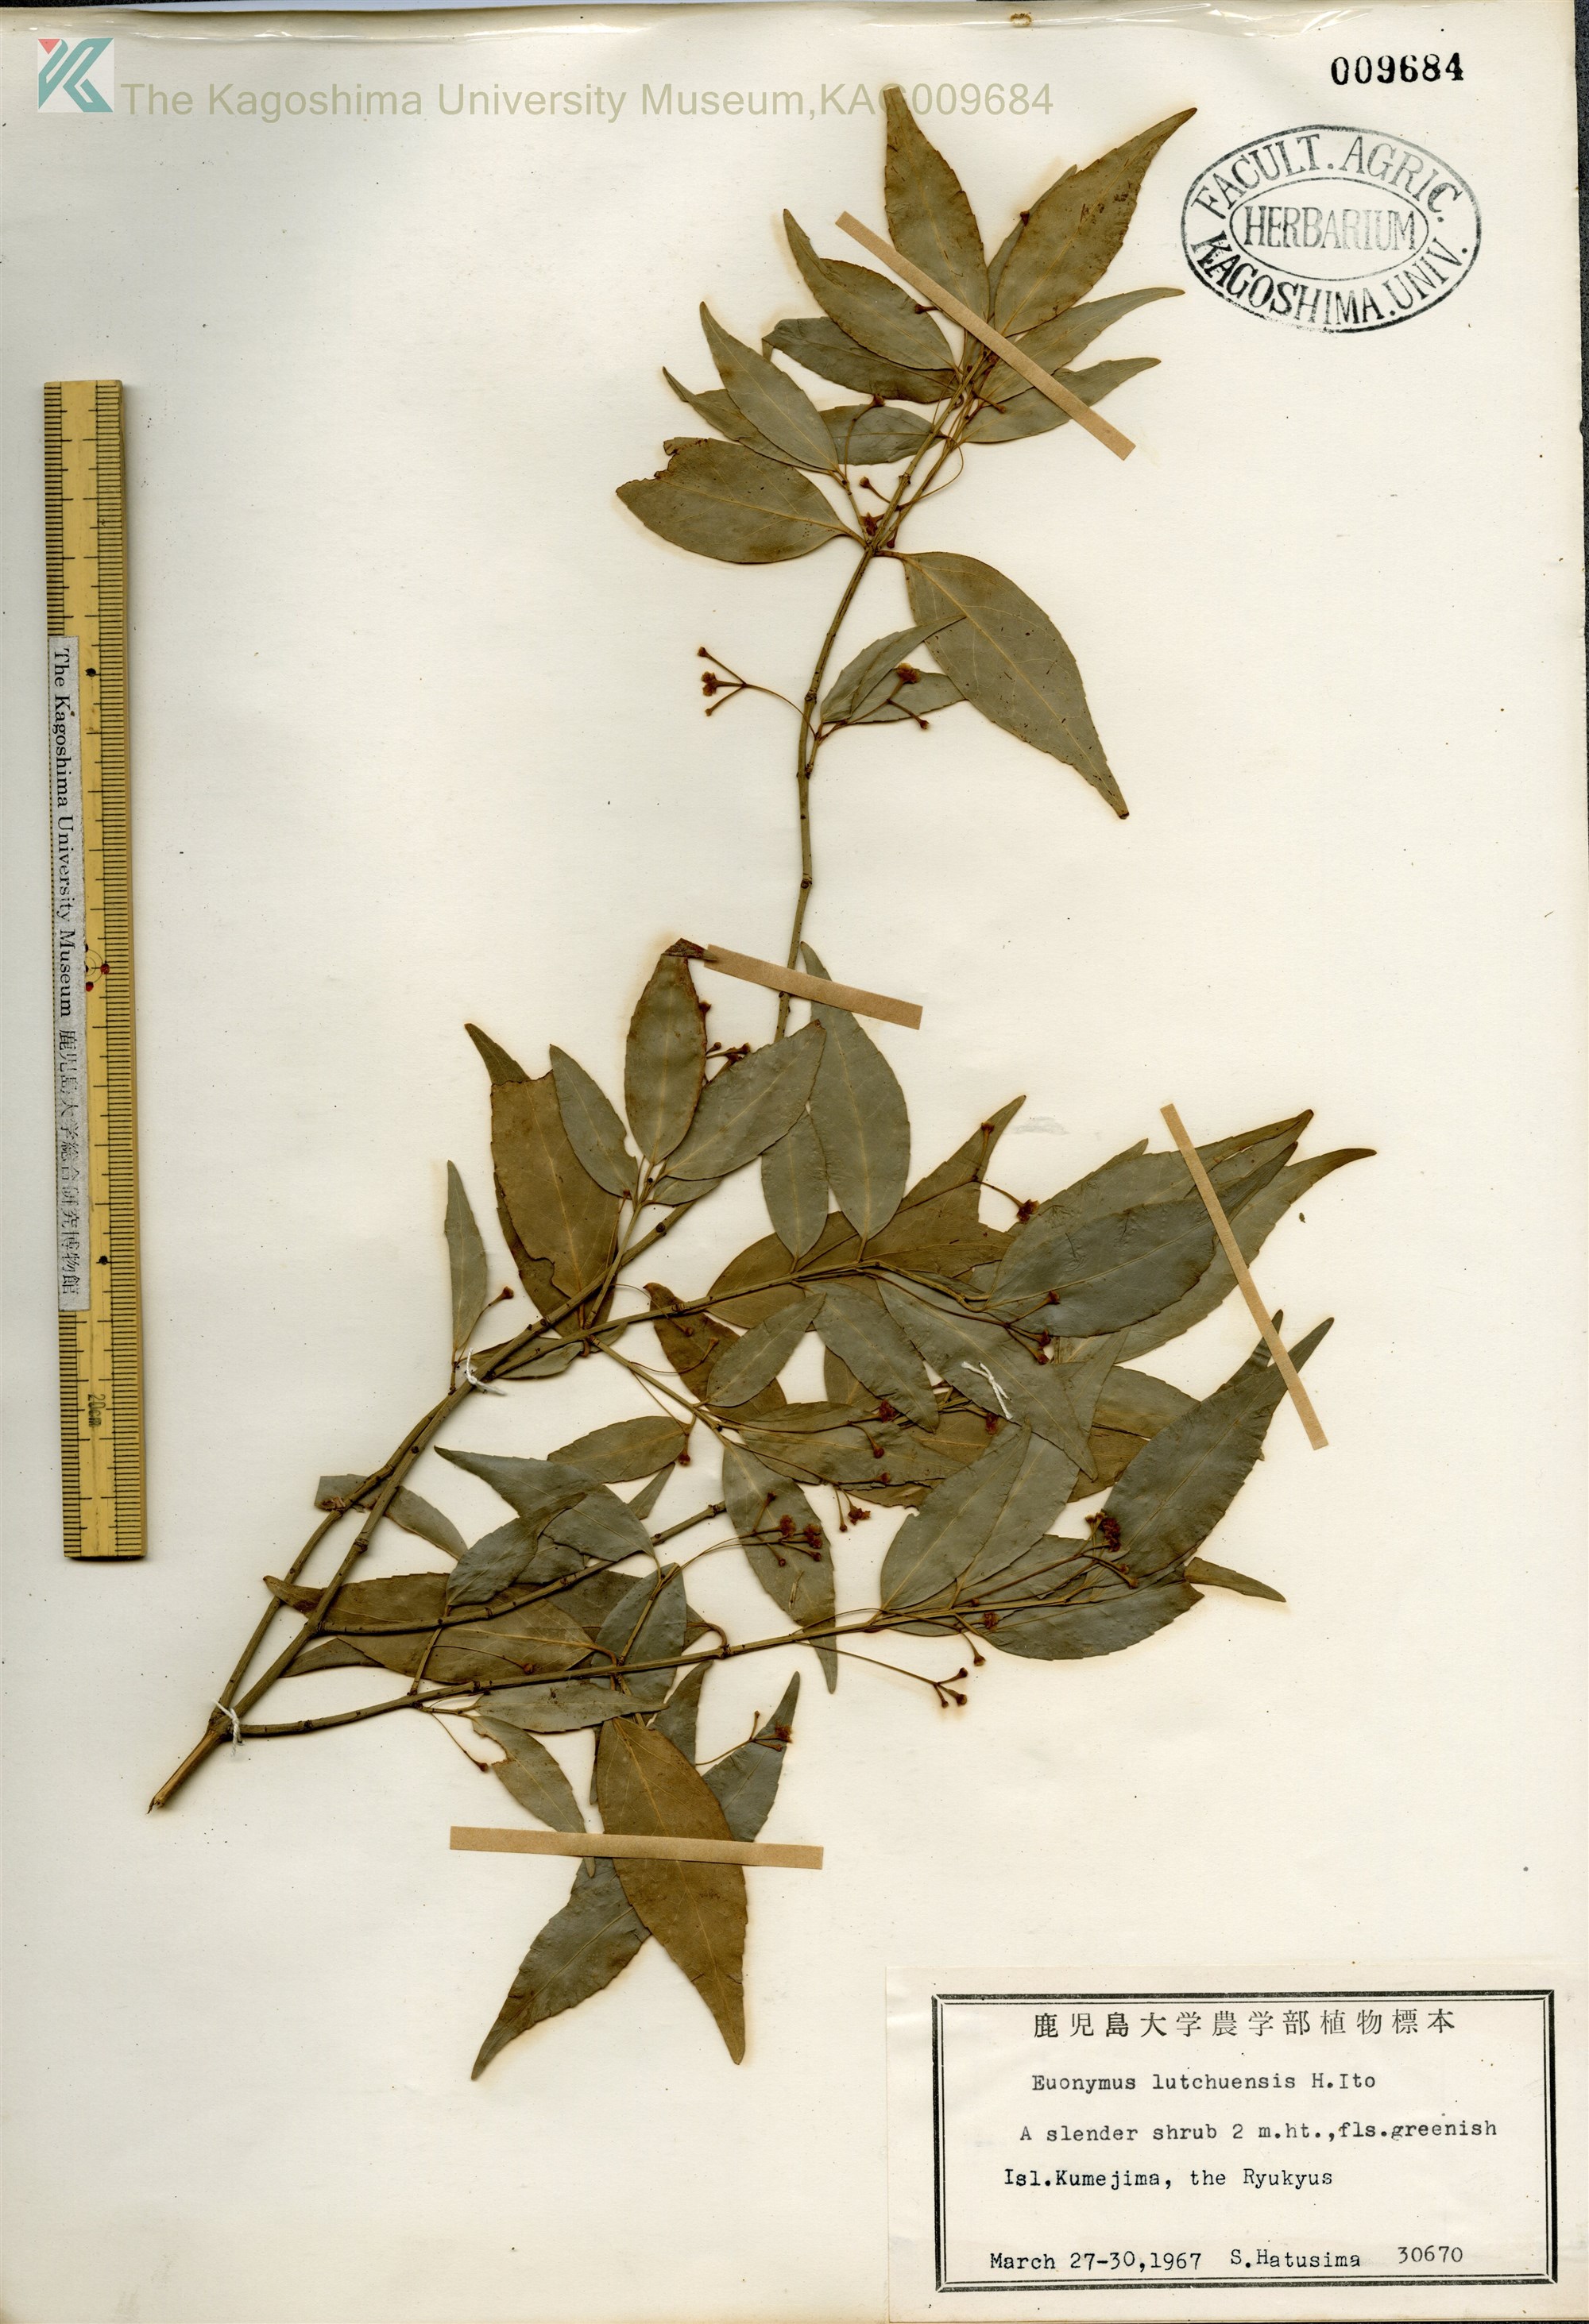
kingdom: Plantae
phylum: Tracheophyta
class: Magnoliopsida
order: Celastrales
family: Celastraceae
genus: Euonymus
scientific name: Euonymus lutchuensis
